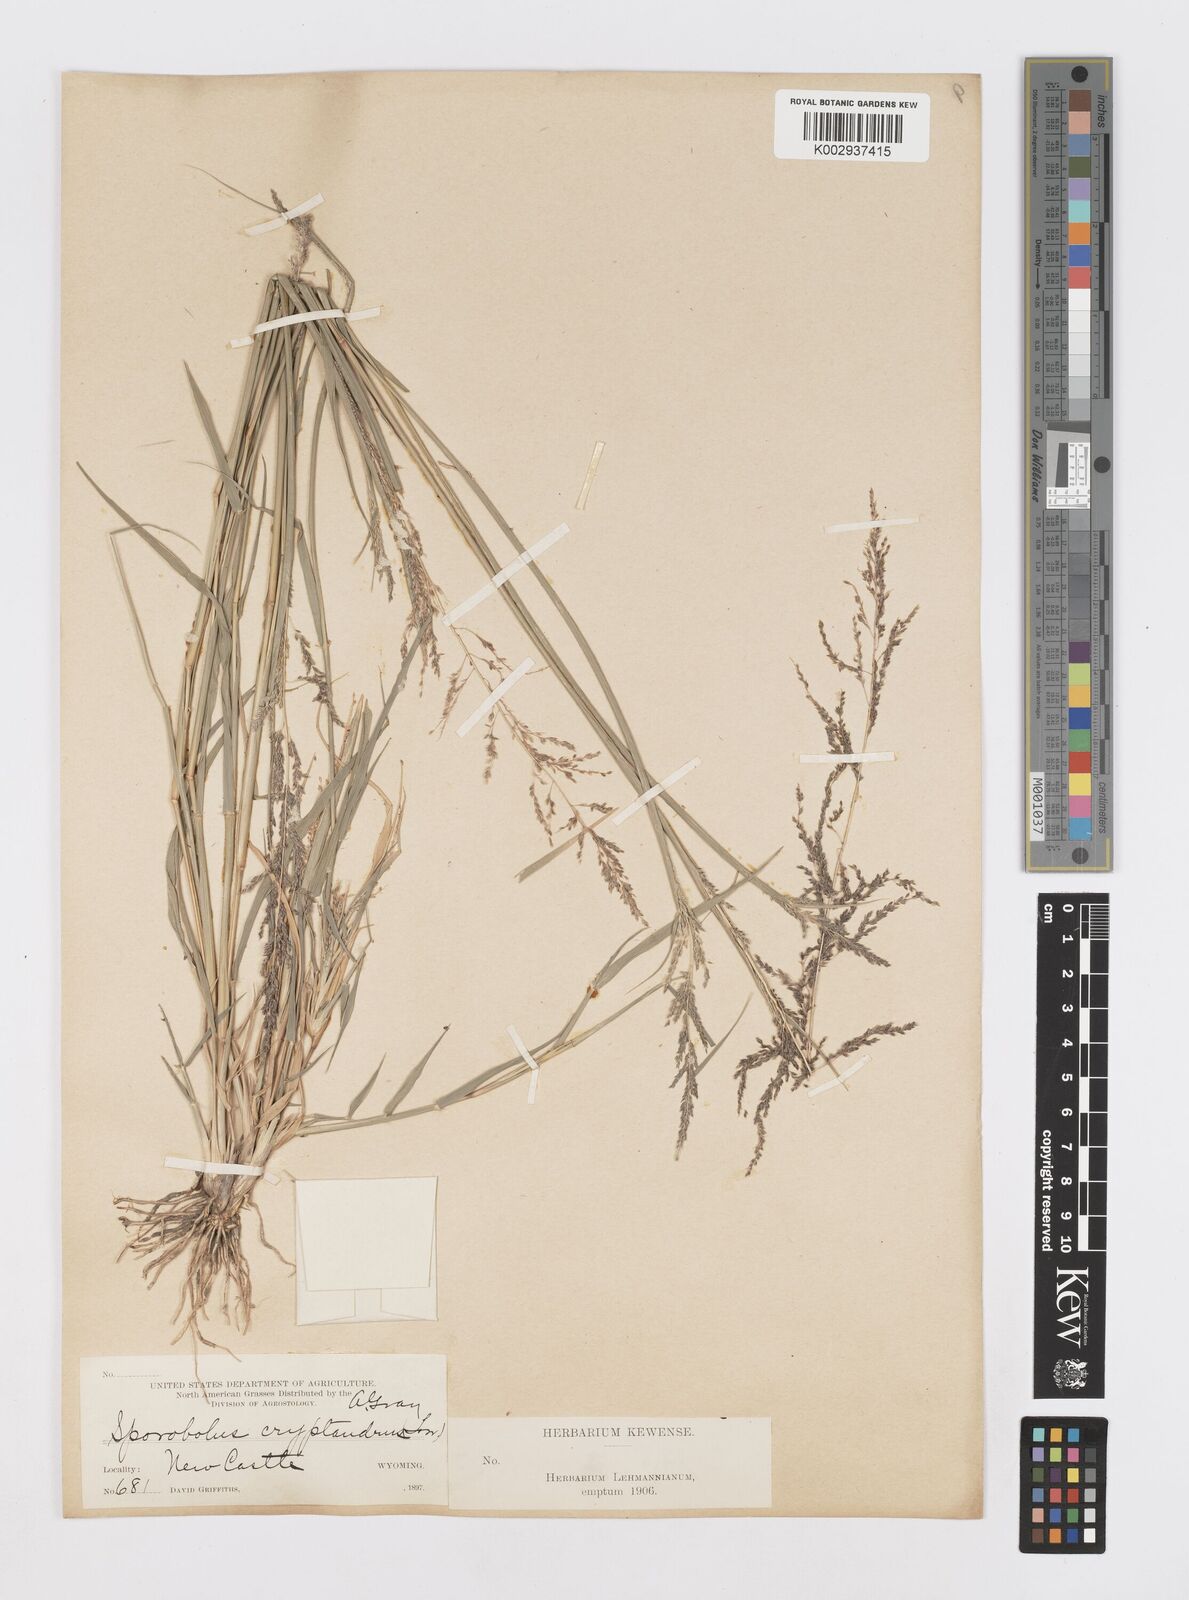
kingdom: Plantae
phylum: Tracheophyta
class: Liliopsida
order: Poales
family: Poaceae
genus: Sporobolus
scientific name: Sporobolus cryptandrus
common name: Sand dropseed
